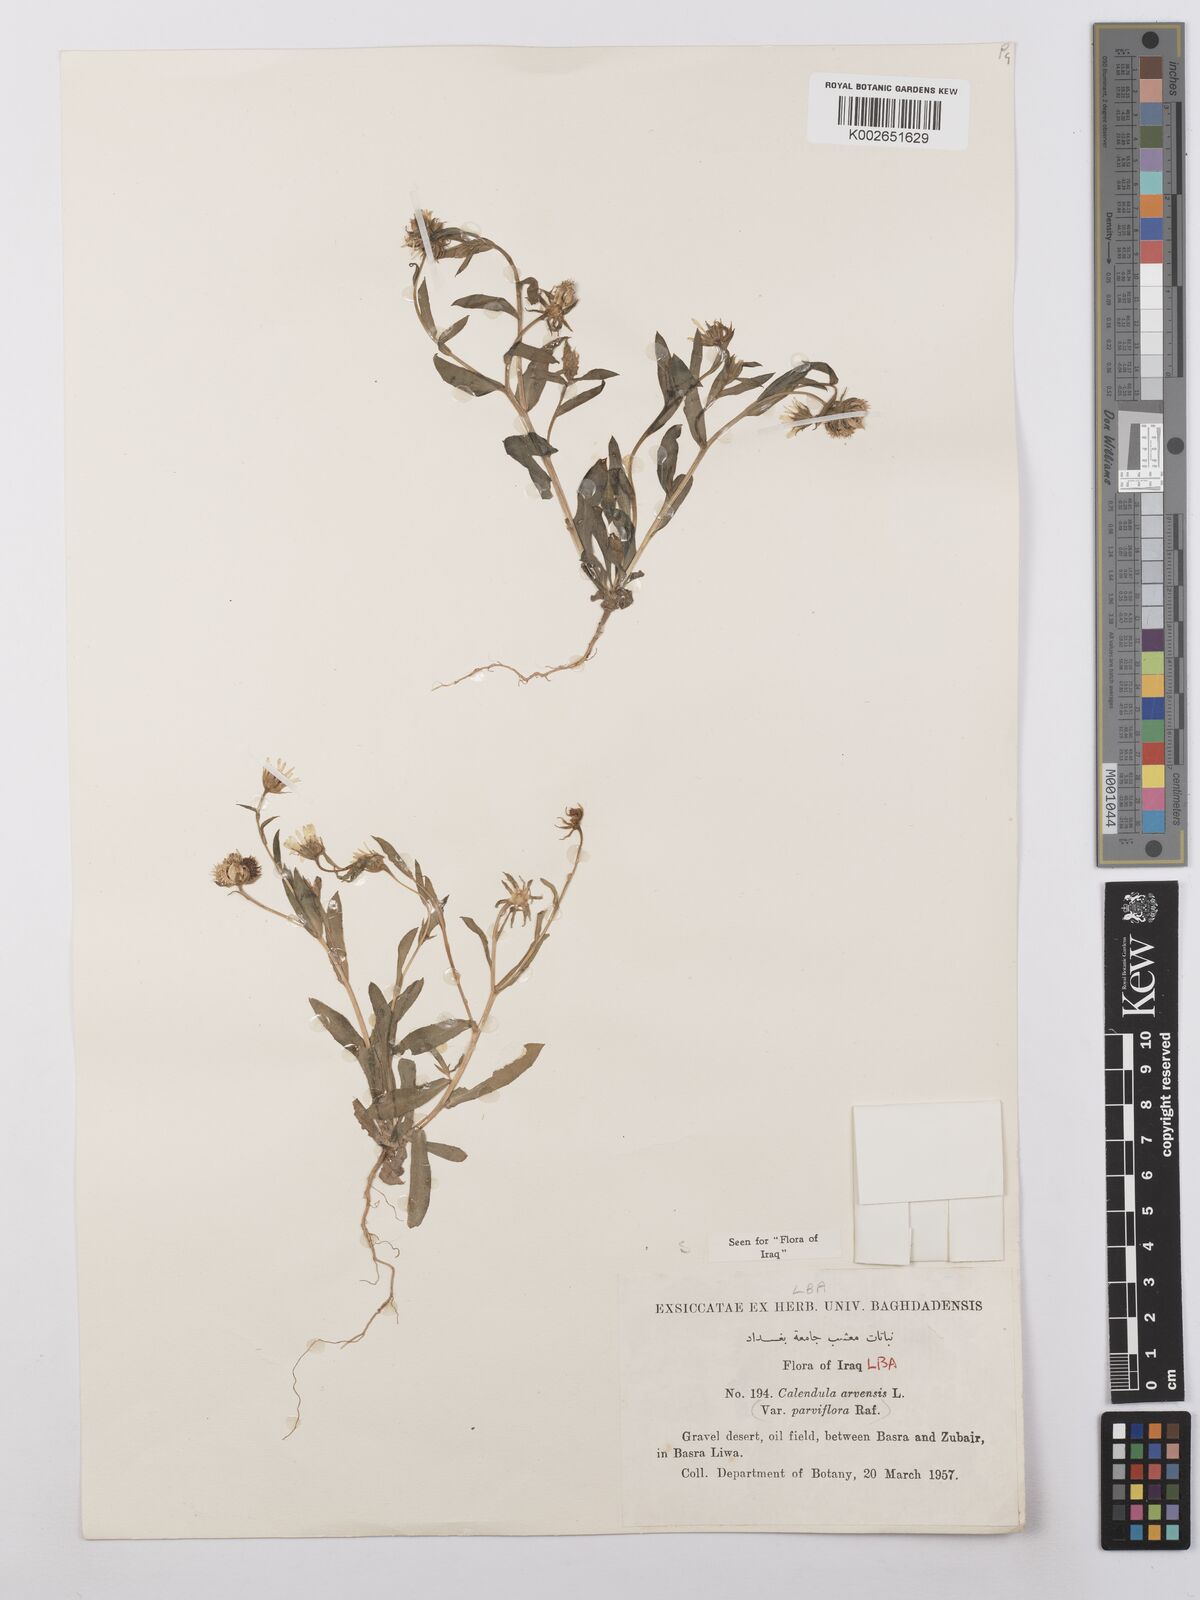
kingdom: Plantae
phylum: Tracheophyta
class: Magnoliopsida
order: Asterales
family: Asteraceae
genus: Calendula
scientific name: Calendula arvensis
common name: Field marigold
